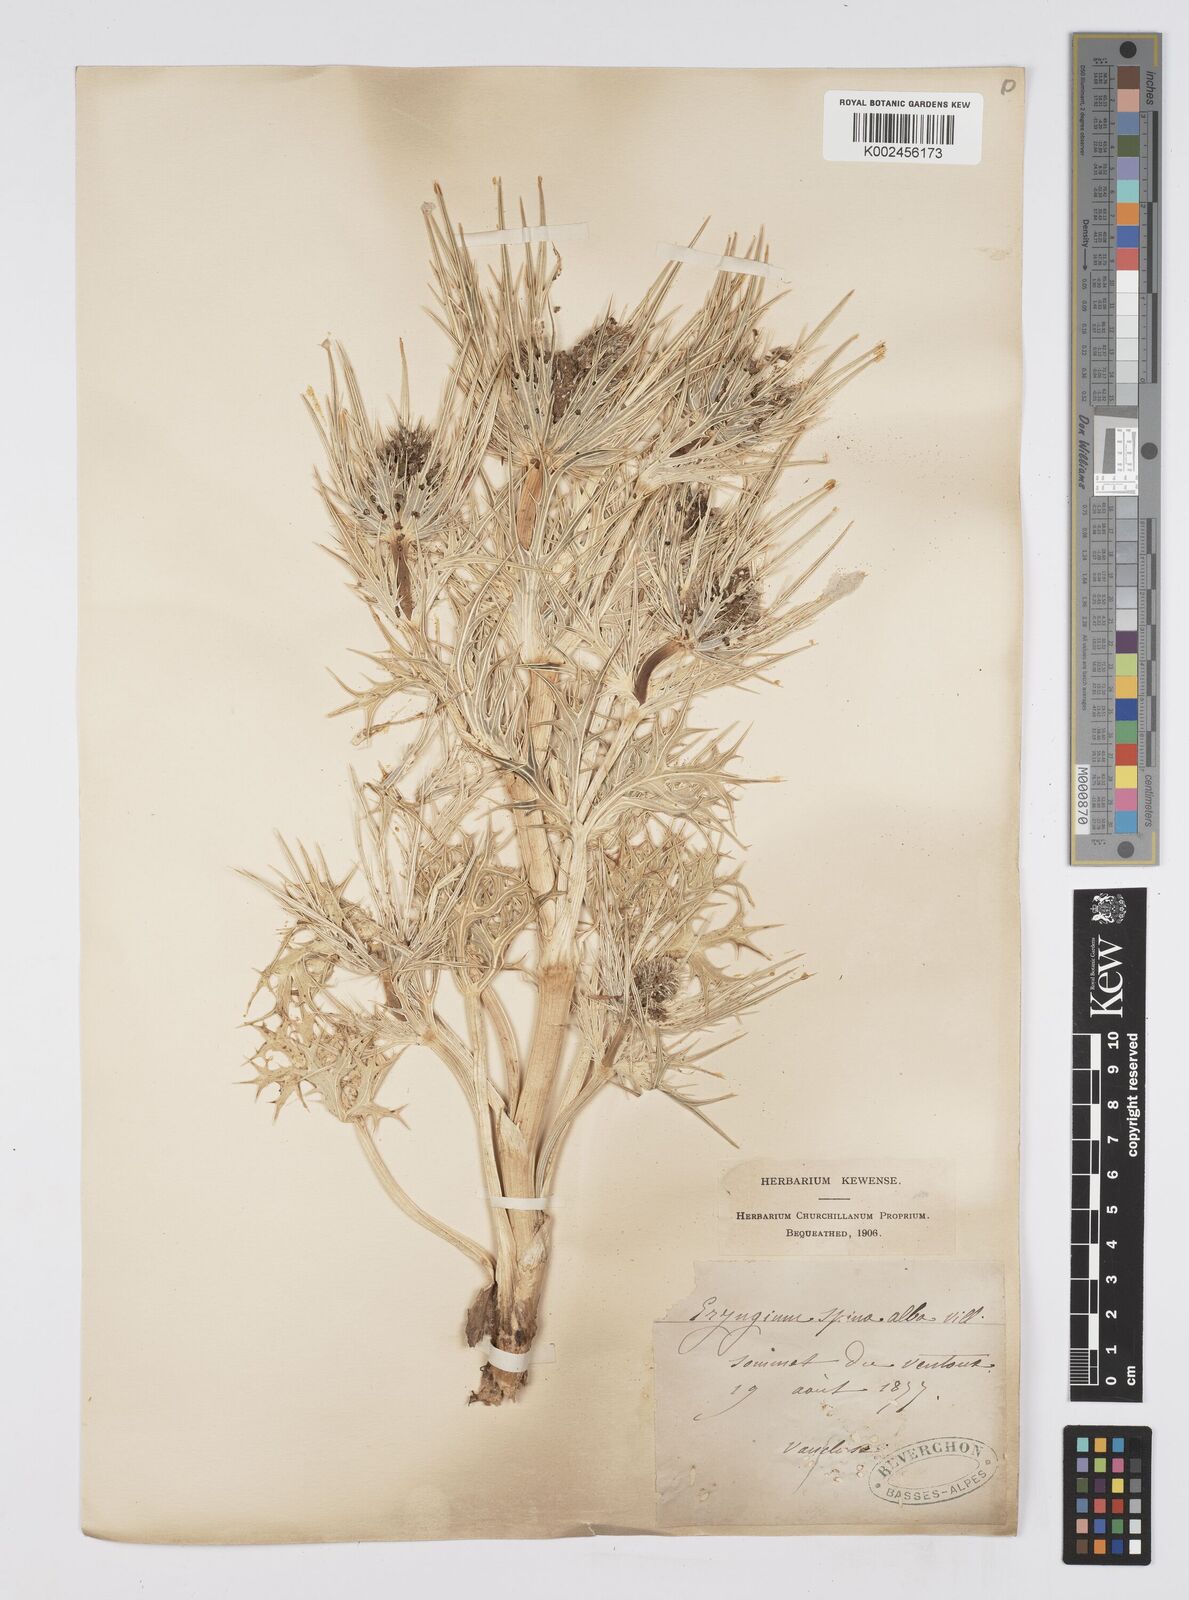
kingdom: Plantae
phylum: Tracheophyta
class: Magnoliopsida
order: Apiales
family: Apiaceae
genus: Eryngium
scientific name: Eryngium spinalba
